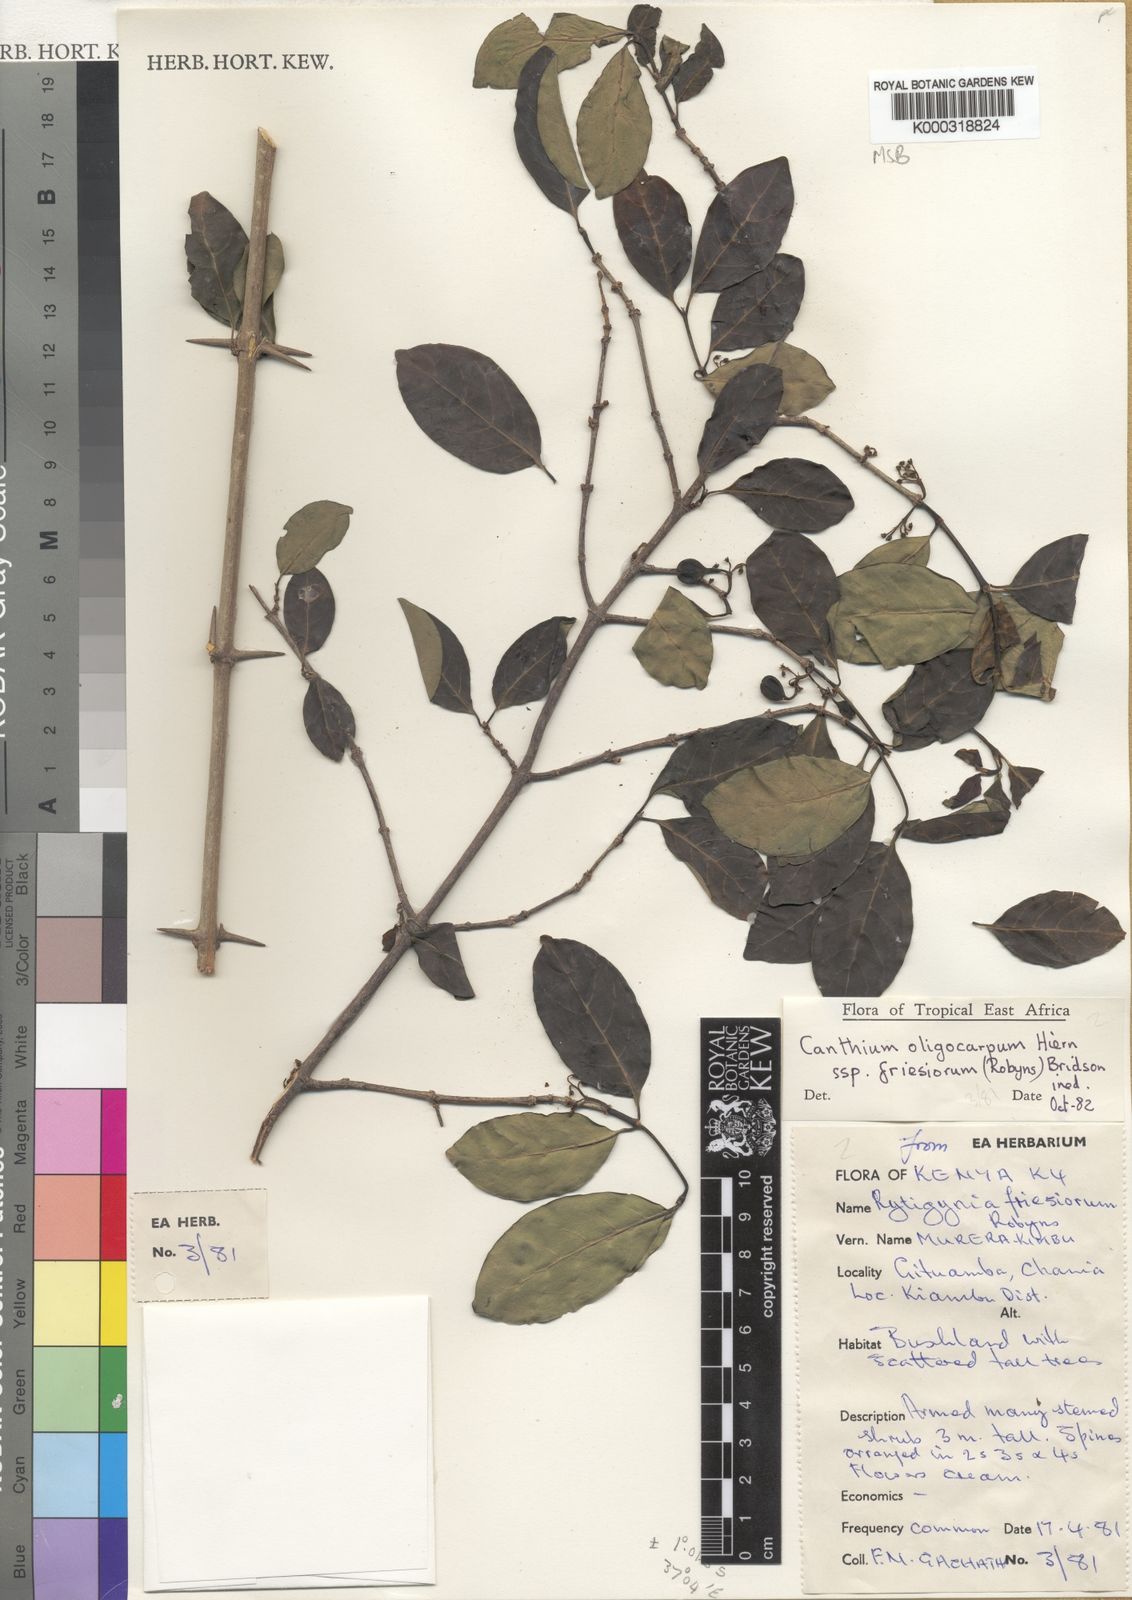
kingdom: Plantae
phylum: Tracheophyta
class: Magnoliopsida
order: Gentianales
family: Rubiaceae
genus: Canthium
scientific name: Canthium oligocarpum
